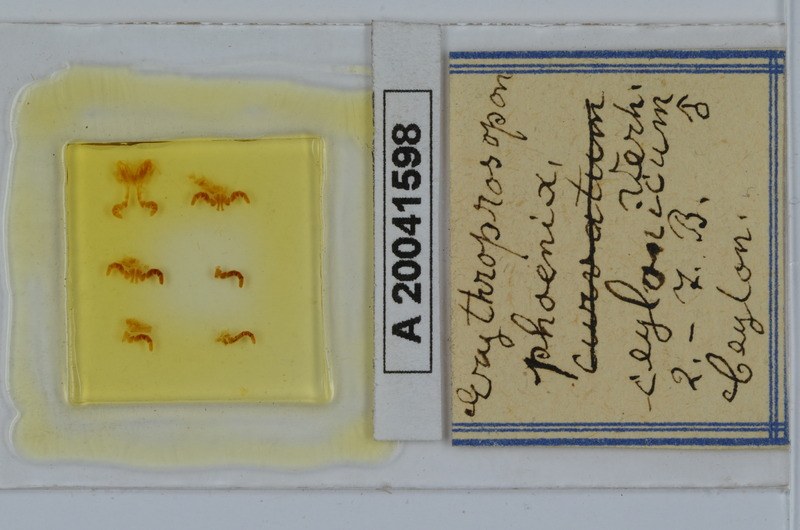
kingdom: Animalia
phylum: Arthropoda
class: Diplopoda
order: Spirobolida
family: Pachybolidae
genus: Erythroprosopon
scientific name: Erythroprosopon phoenix
